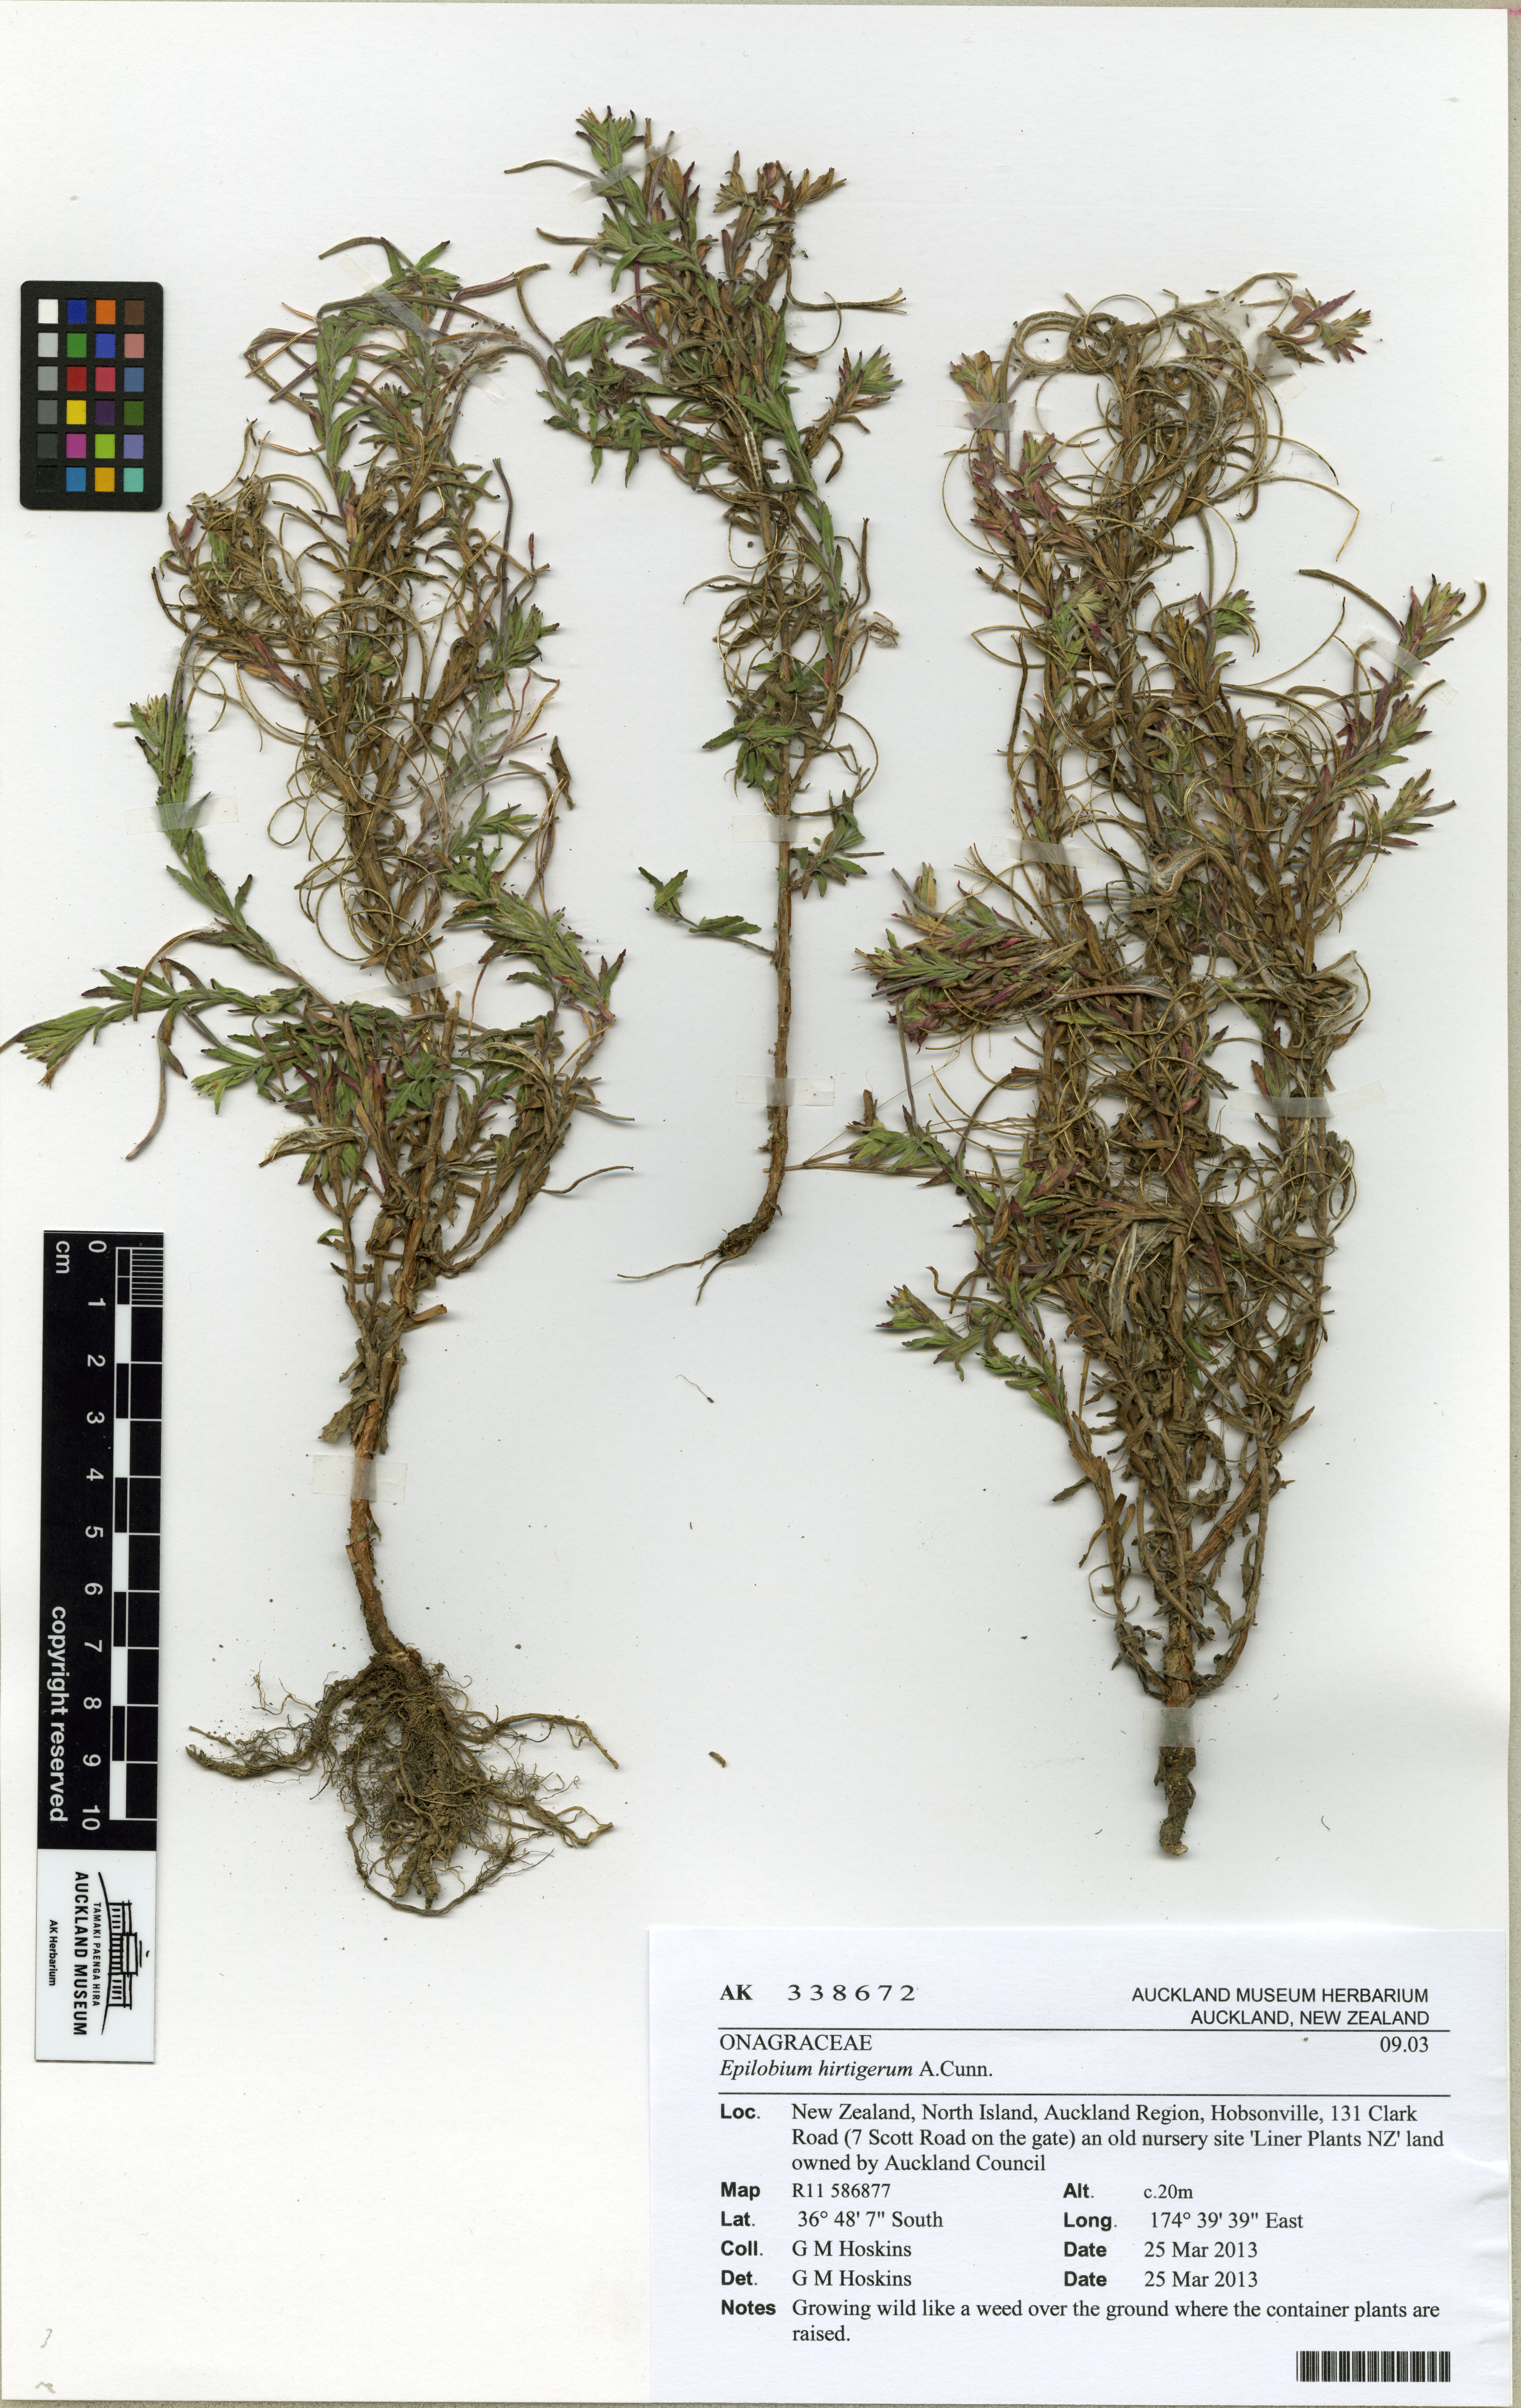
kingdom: Plantae
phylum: Tracheophyta
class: Magnoliopsida
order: Myrtales
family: Onagraceae
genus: Epilobium
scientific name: Epilobium billardierianum
